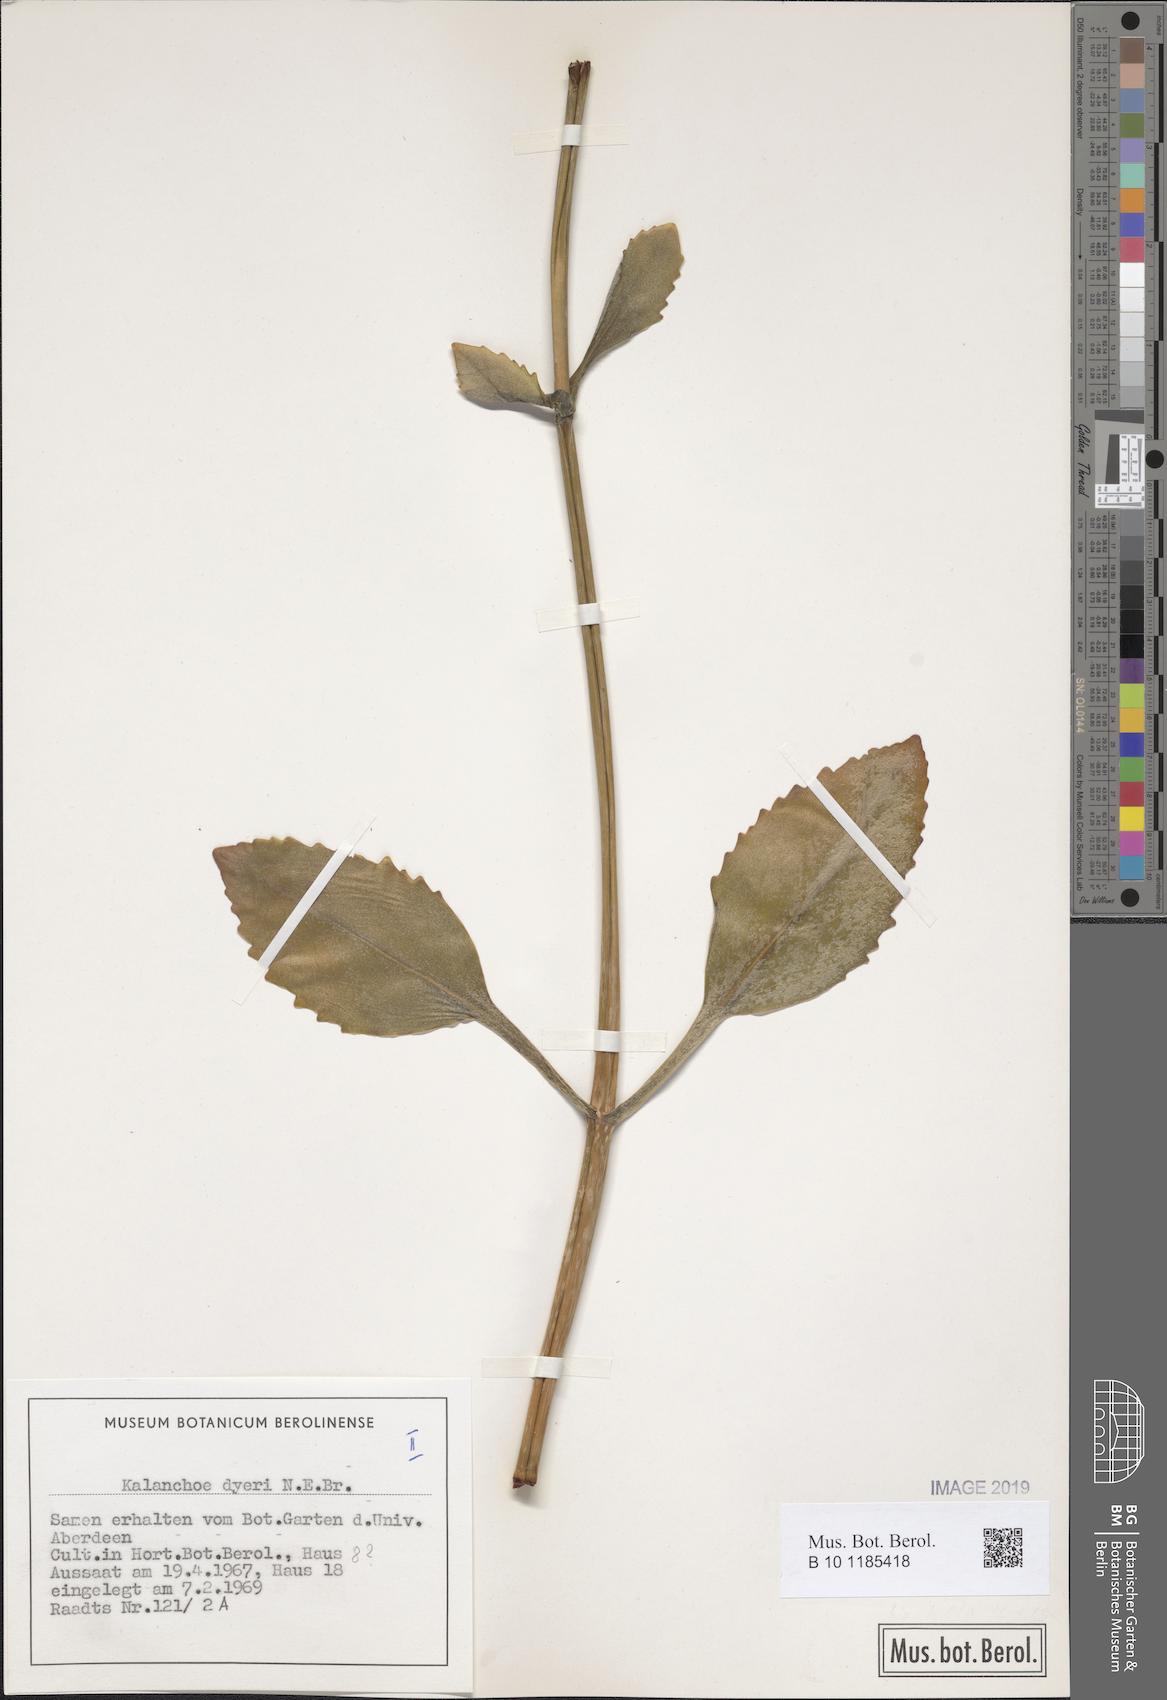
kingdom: Plantae
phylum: Tracheophyta
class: Magnoliopsida
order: Saxifragales
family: Crassulaceae
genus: Kalanchoe
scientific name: Kalanchoe dyeri
